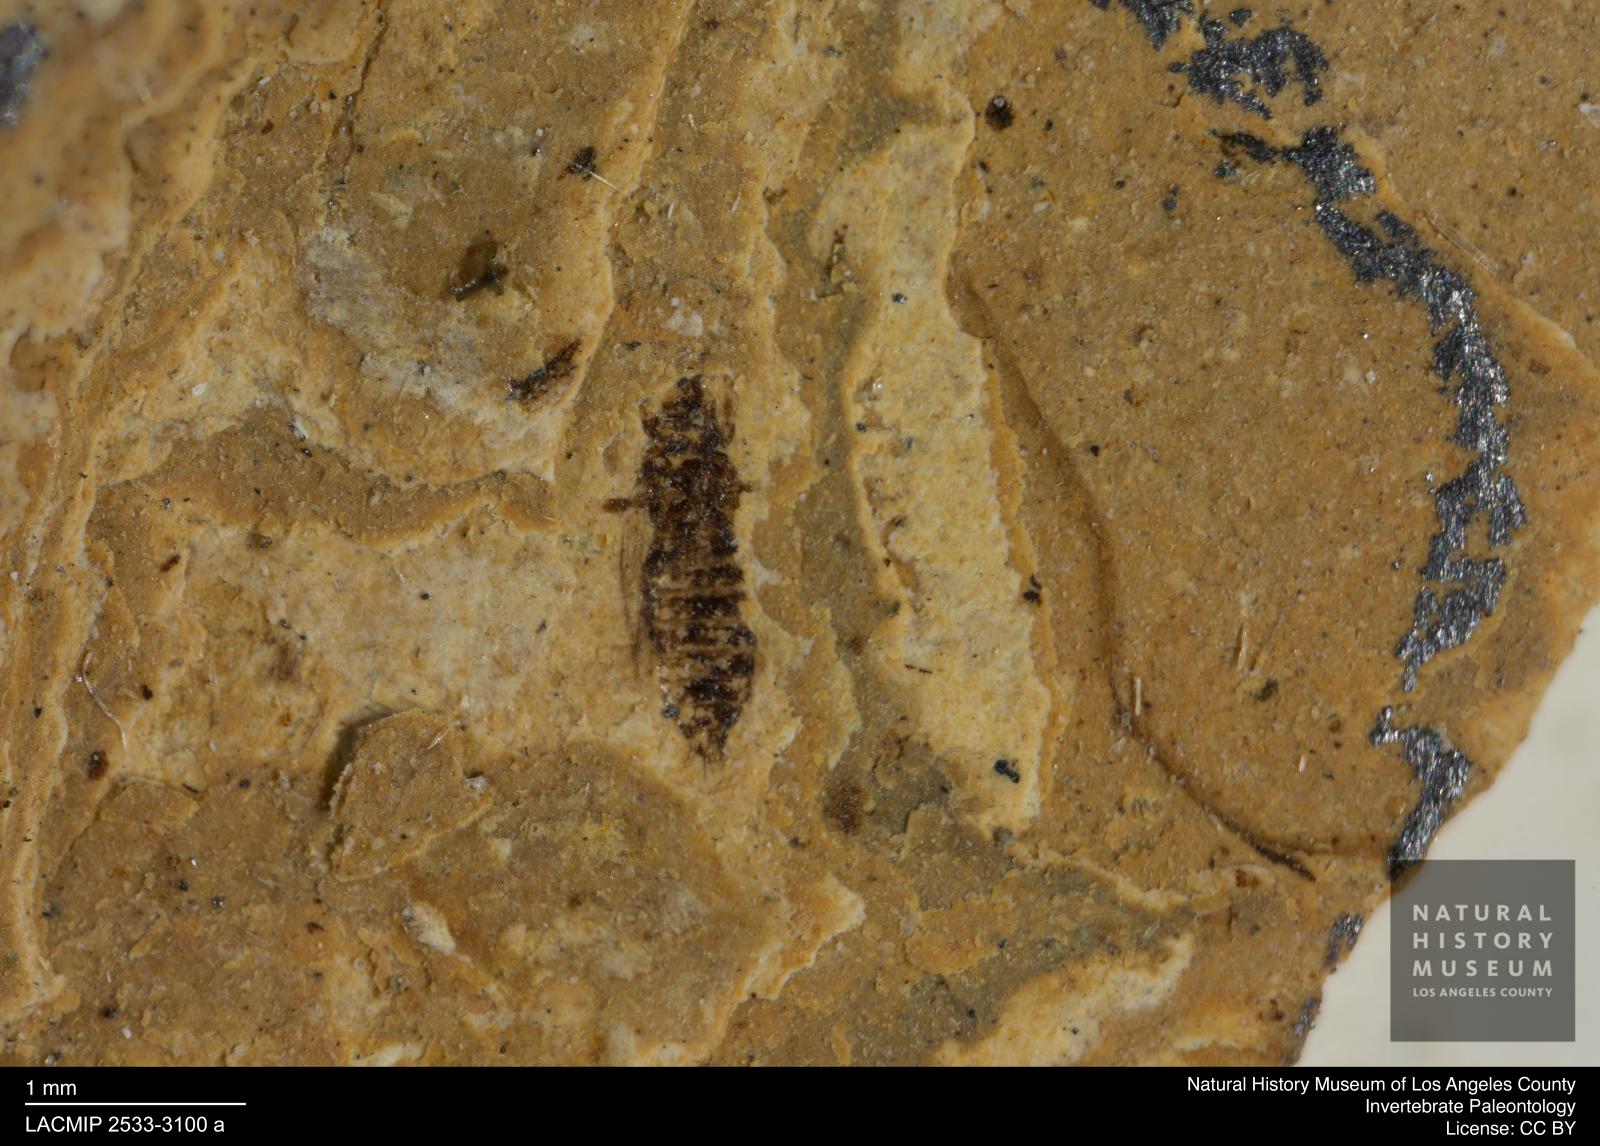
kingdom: Animalia
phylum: Arthropoda
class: Insecta
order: Thysanoptera
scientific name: Thysanoptera
